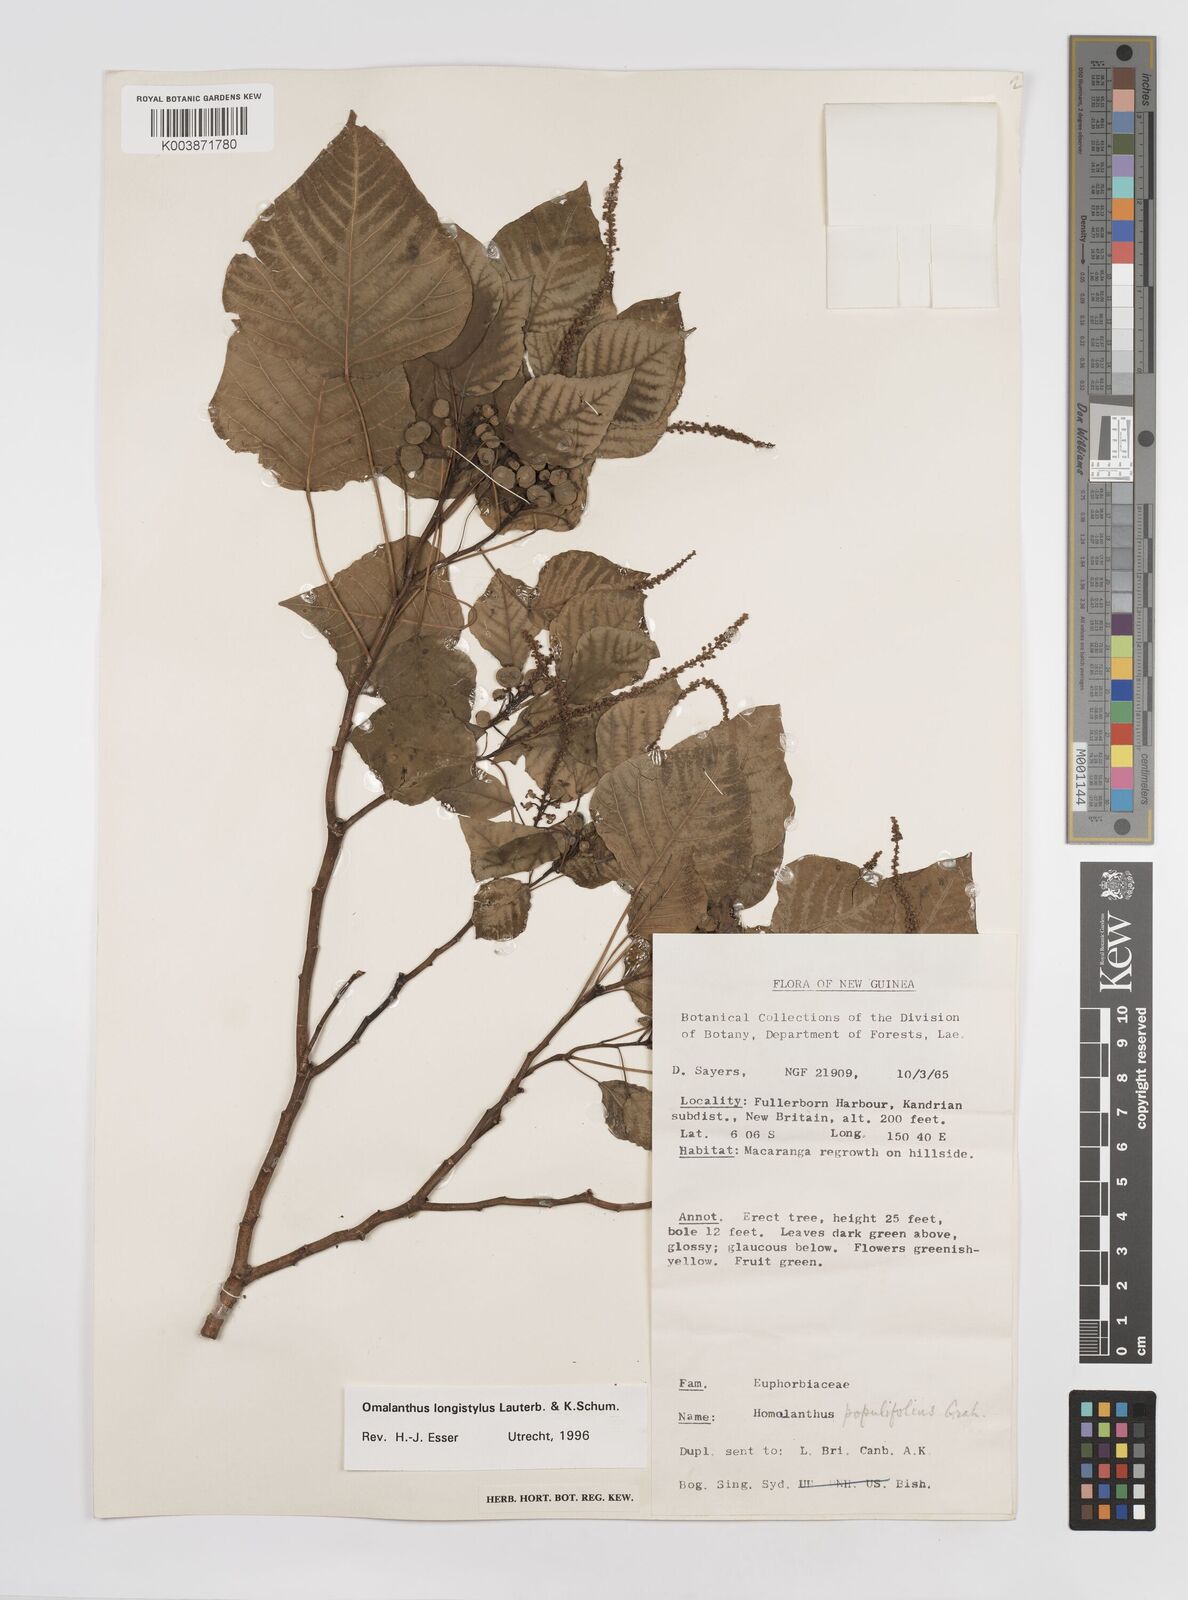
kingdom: Plantae
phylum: Tracheophyta
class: Magnoliopsida
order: Malpighiales
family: Euphorbiaceae
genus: Homalanthus
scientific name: Homalanthus longistylus
